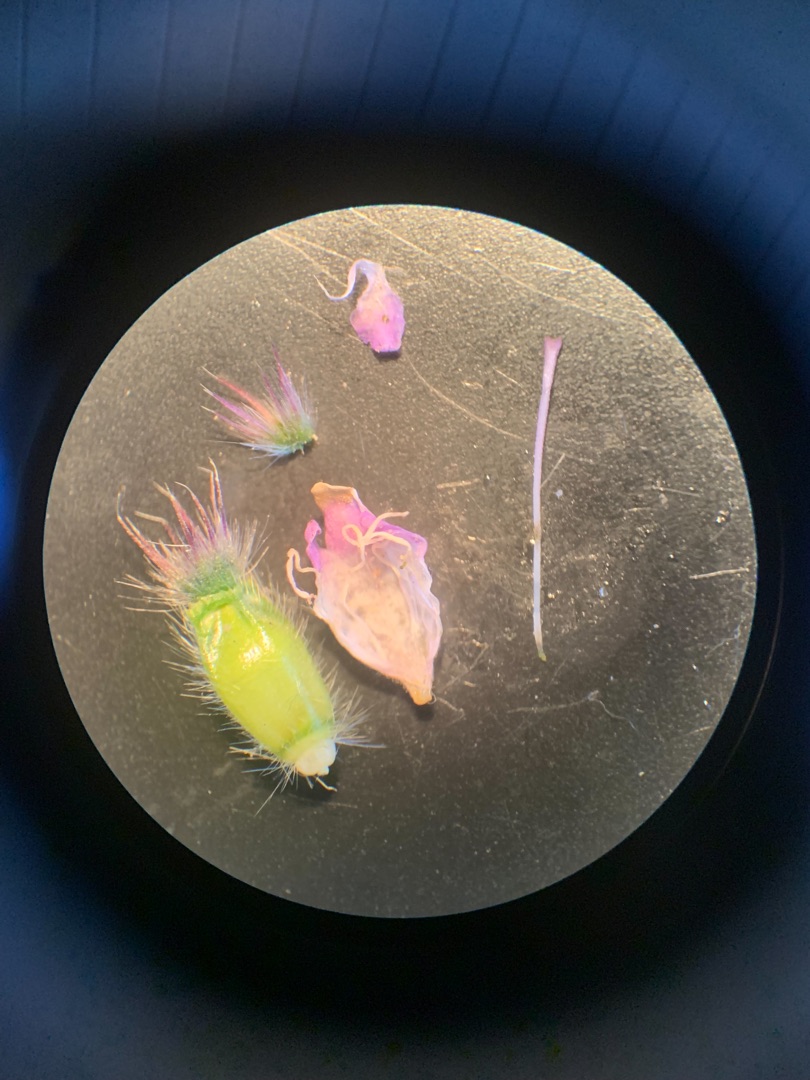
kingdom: Plantae
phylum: Tracheophyta
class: Magnoliopsida
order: Dipsacales
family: Caprifoliaceae
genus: Knautia
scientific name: Knautia arvensis
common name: Blåhat
